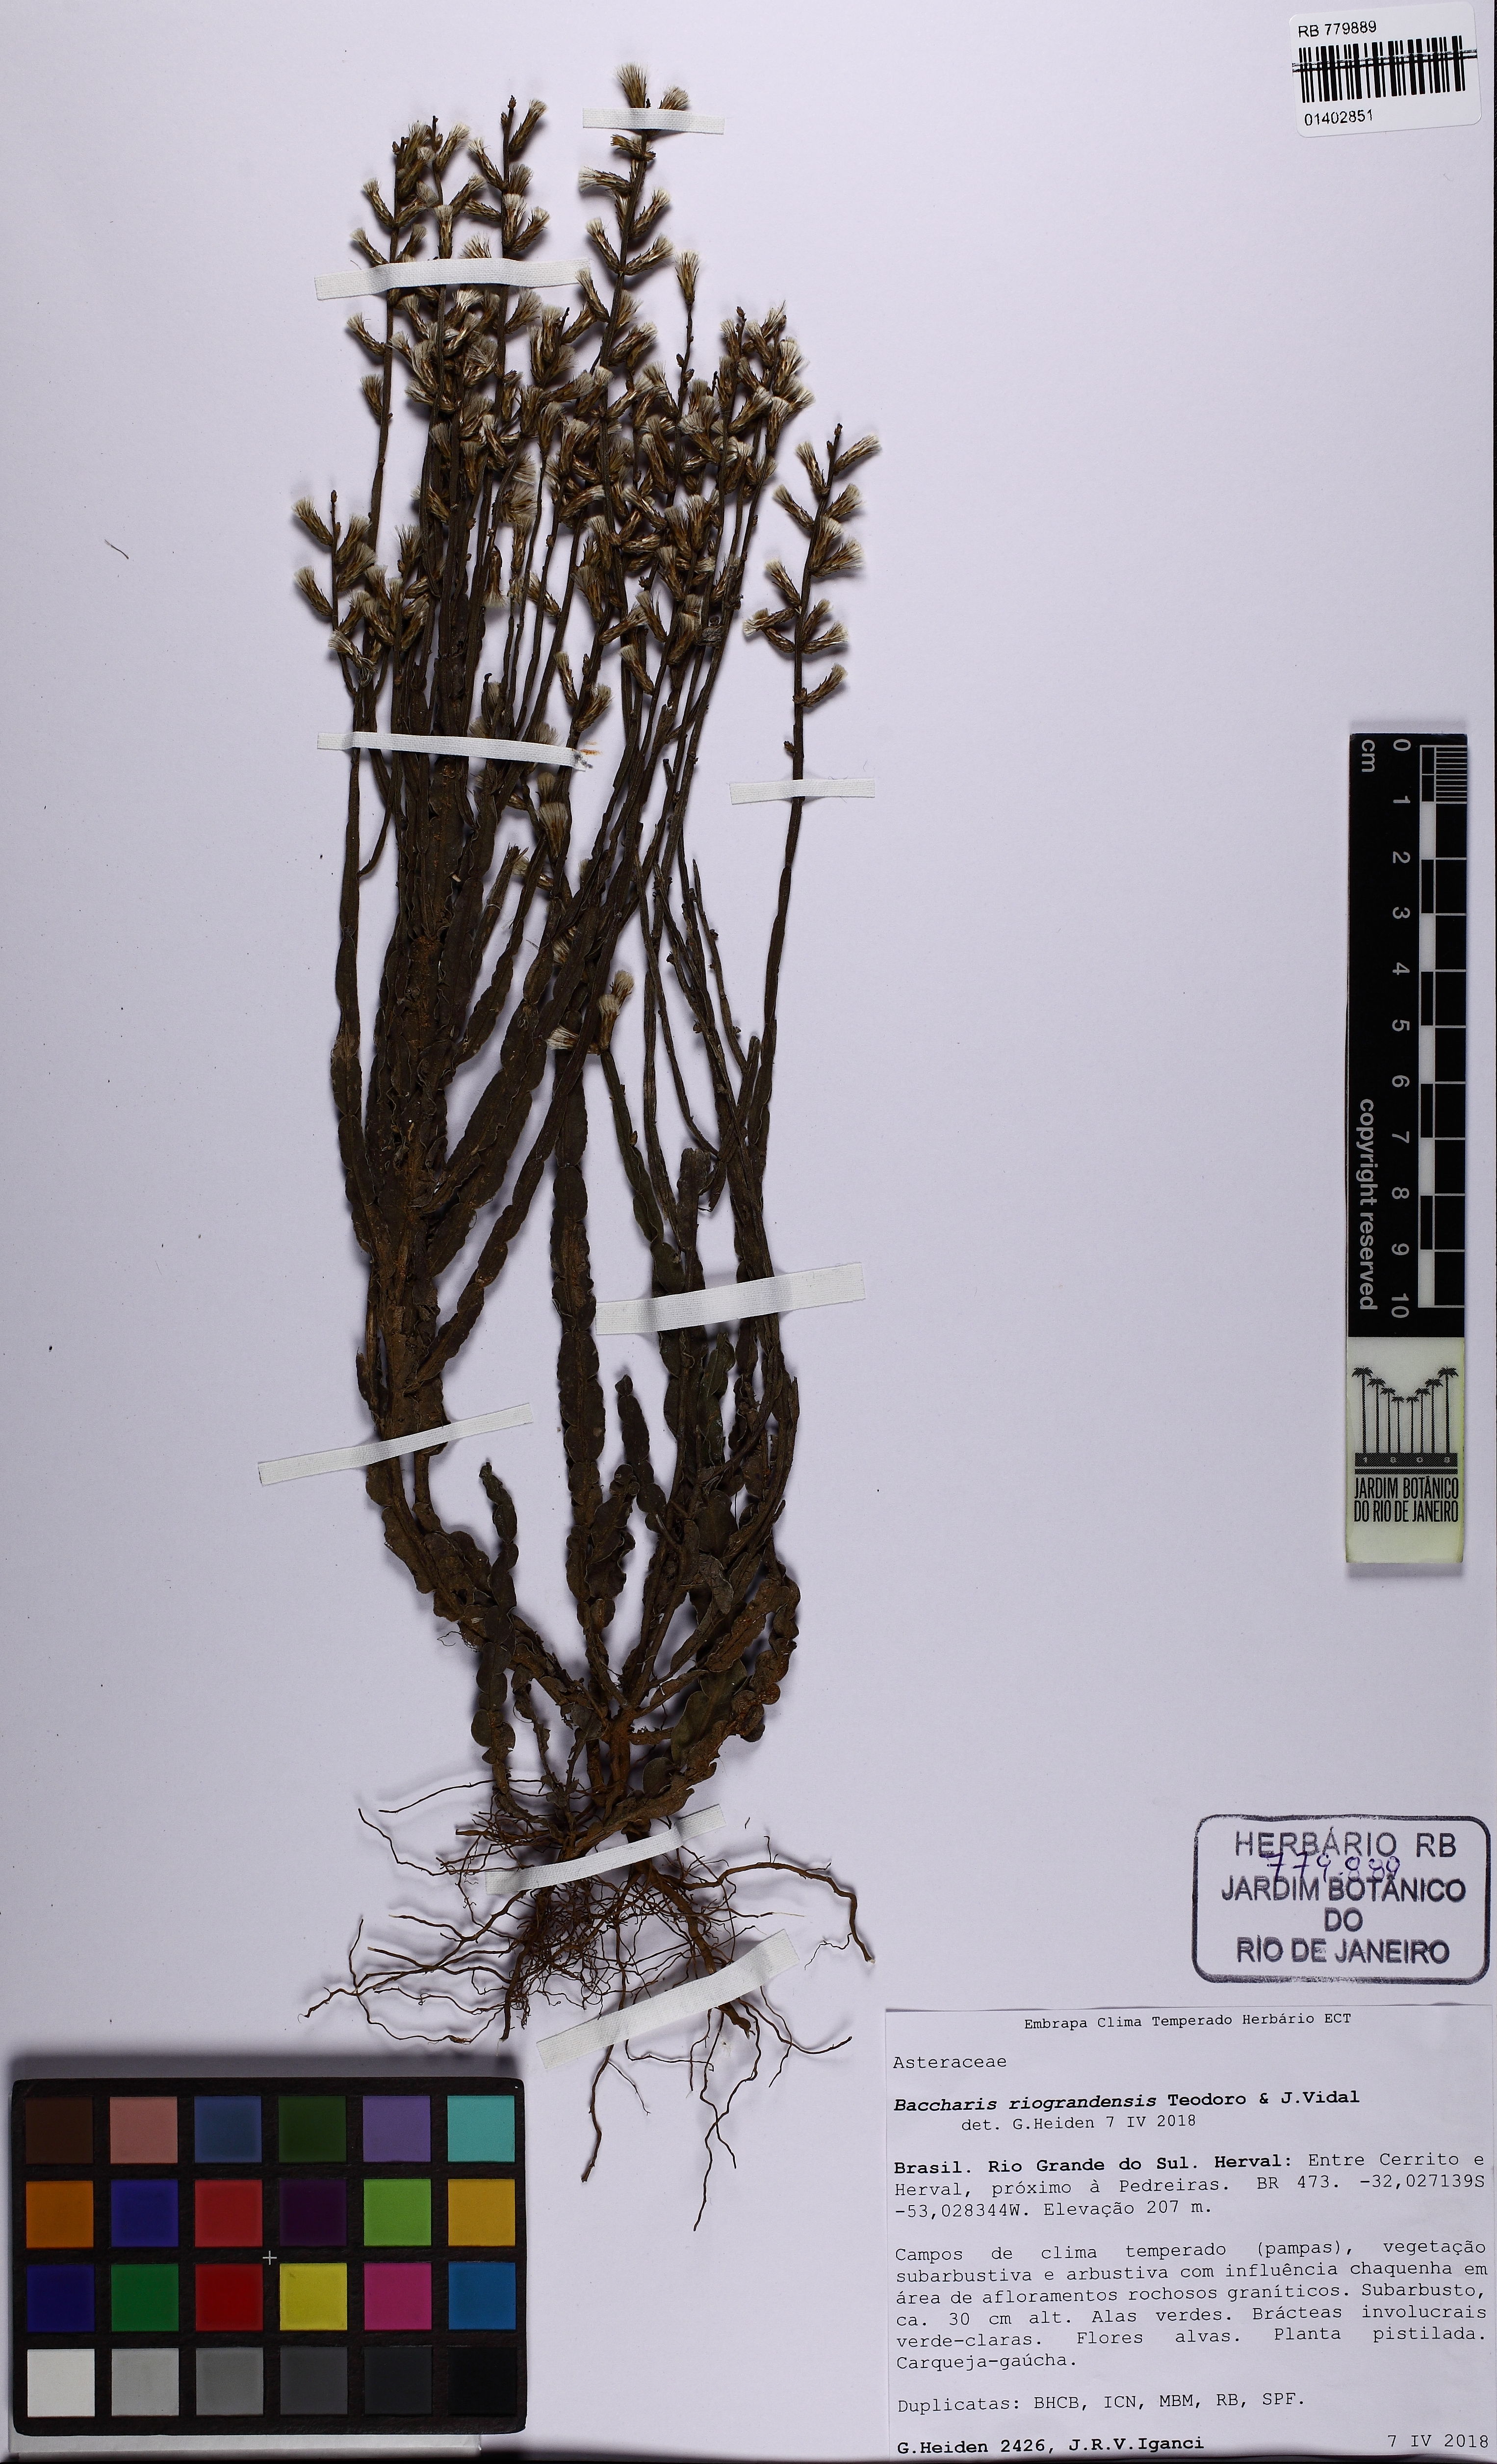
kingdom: Plantae
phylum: Tracheophyta
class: Magnoliopsida
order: Asterales
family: Asteraceae
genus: Baccharis
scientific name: Baccharis riograndensis
